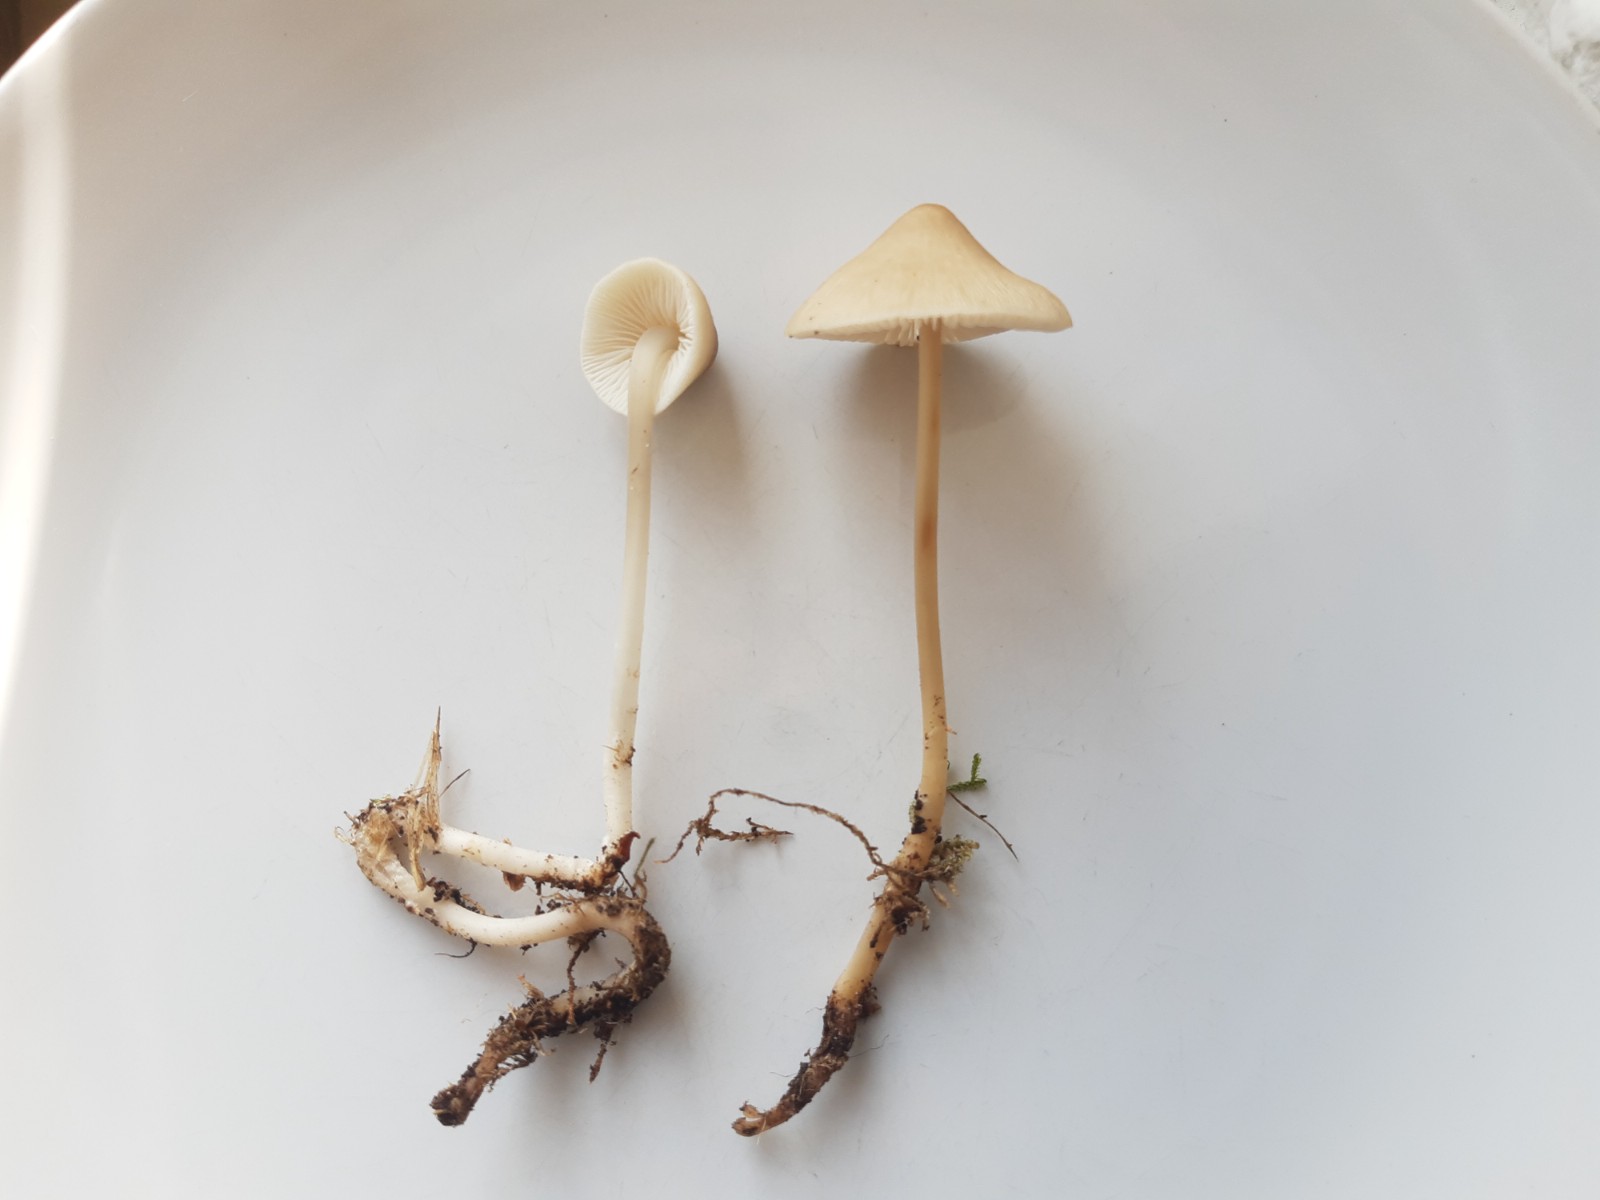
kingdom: Fungi
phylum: Basidiomycota
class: Agaricomycetes
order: Agaricales
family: Mycenaceae
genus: Mycena
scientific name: Mycena galericulata
